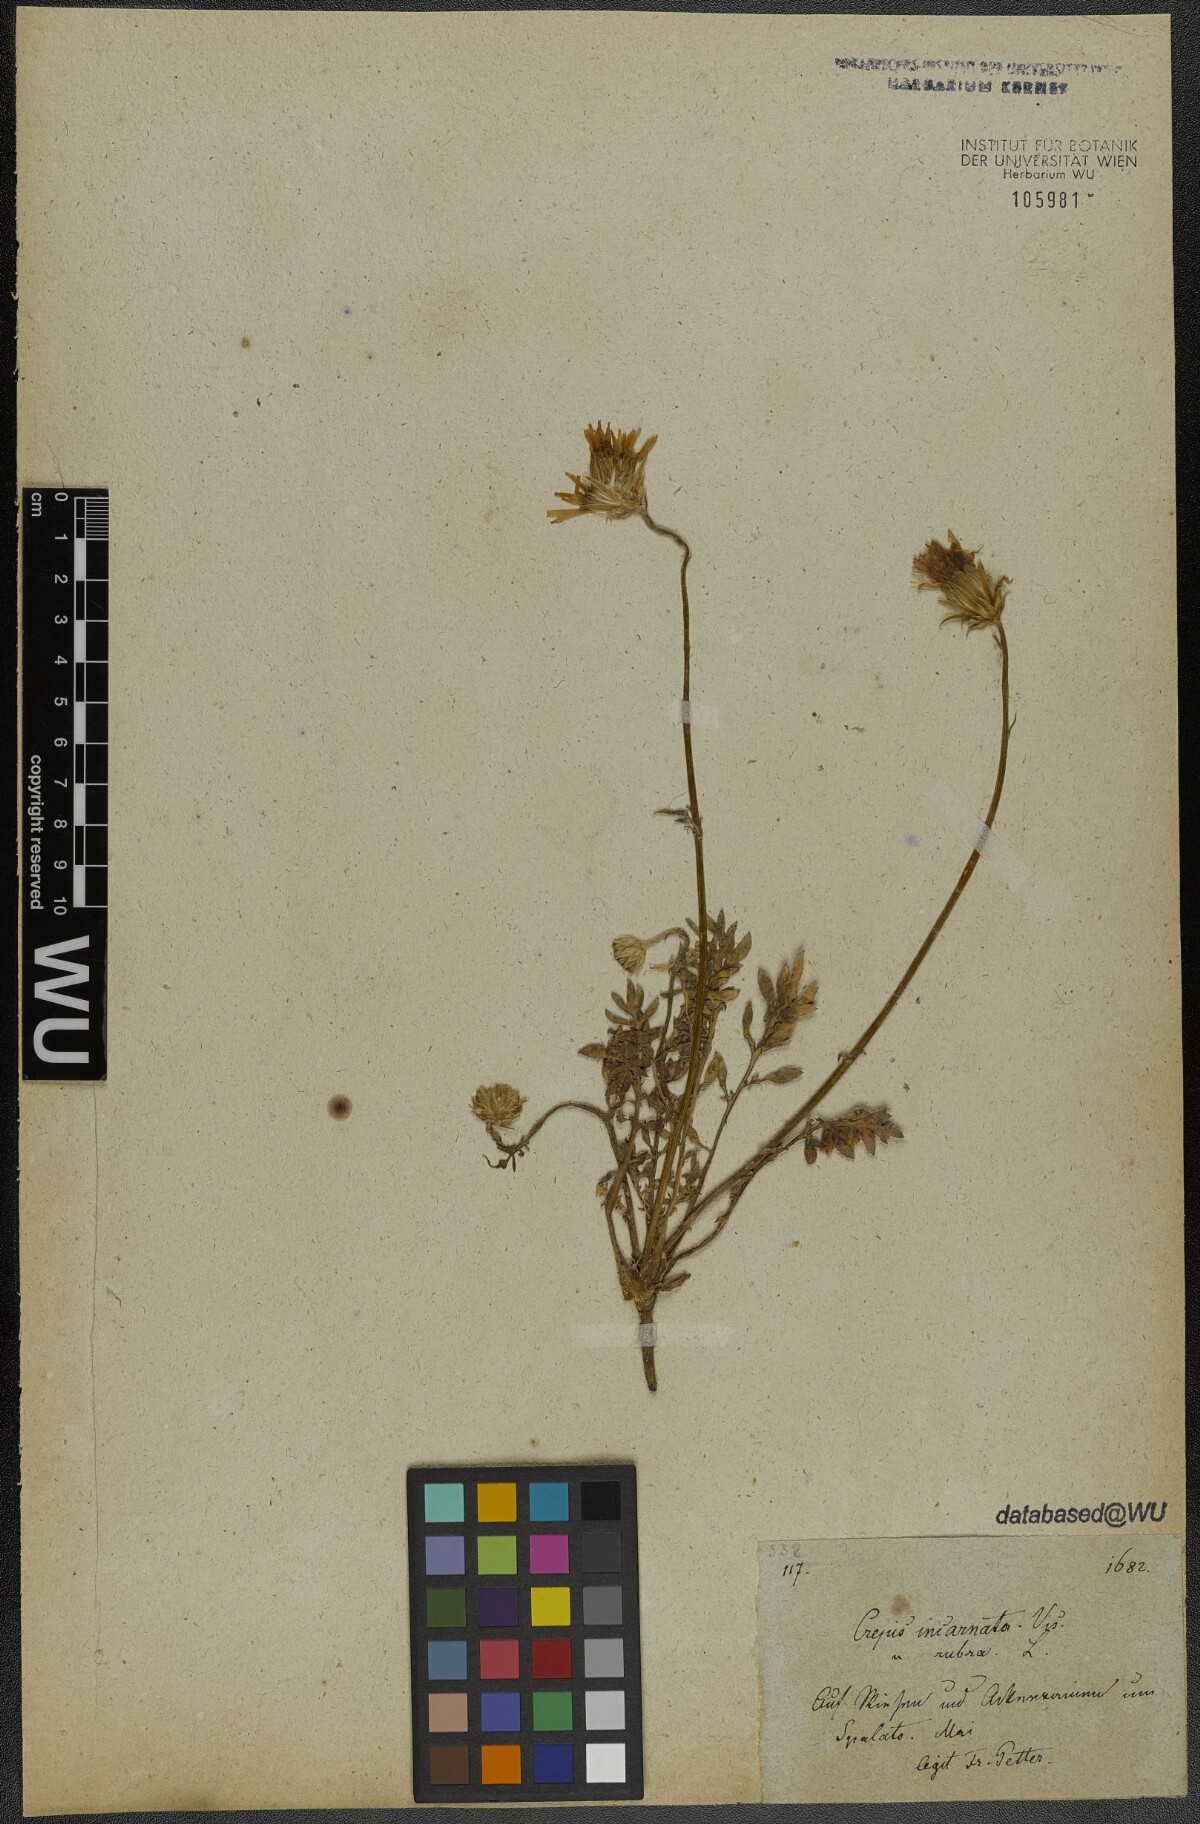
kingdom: Plantae
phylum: Tracheophyta
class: Magnoliopsida
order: Asterales
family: Asteraceae
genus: Crepis
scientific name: Crepis rubra
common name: Pink hawk's-beard
